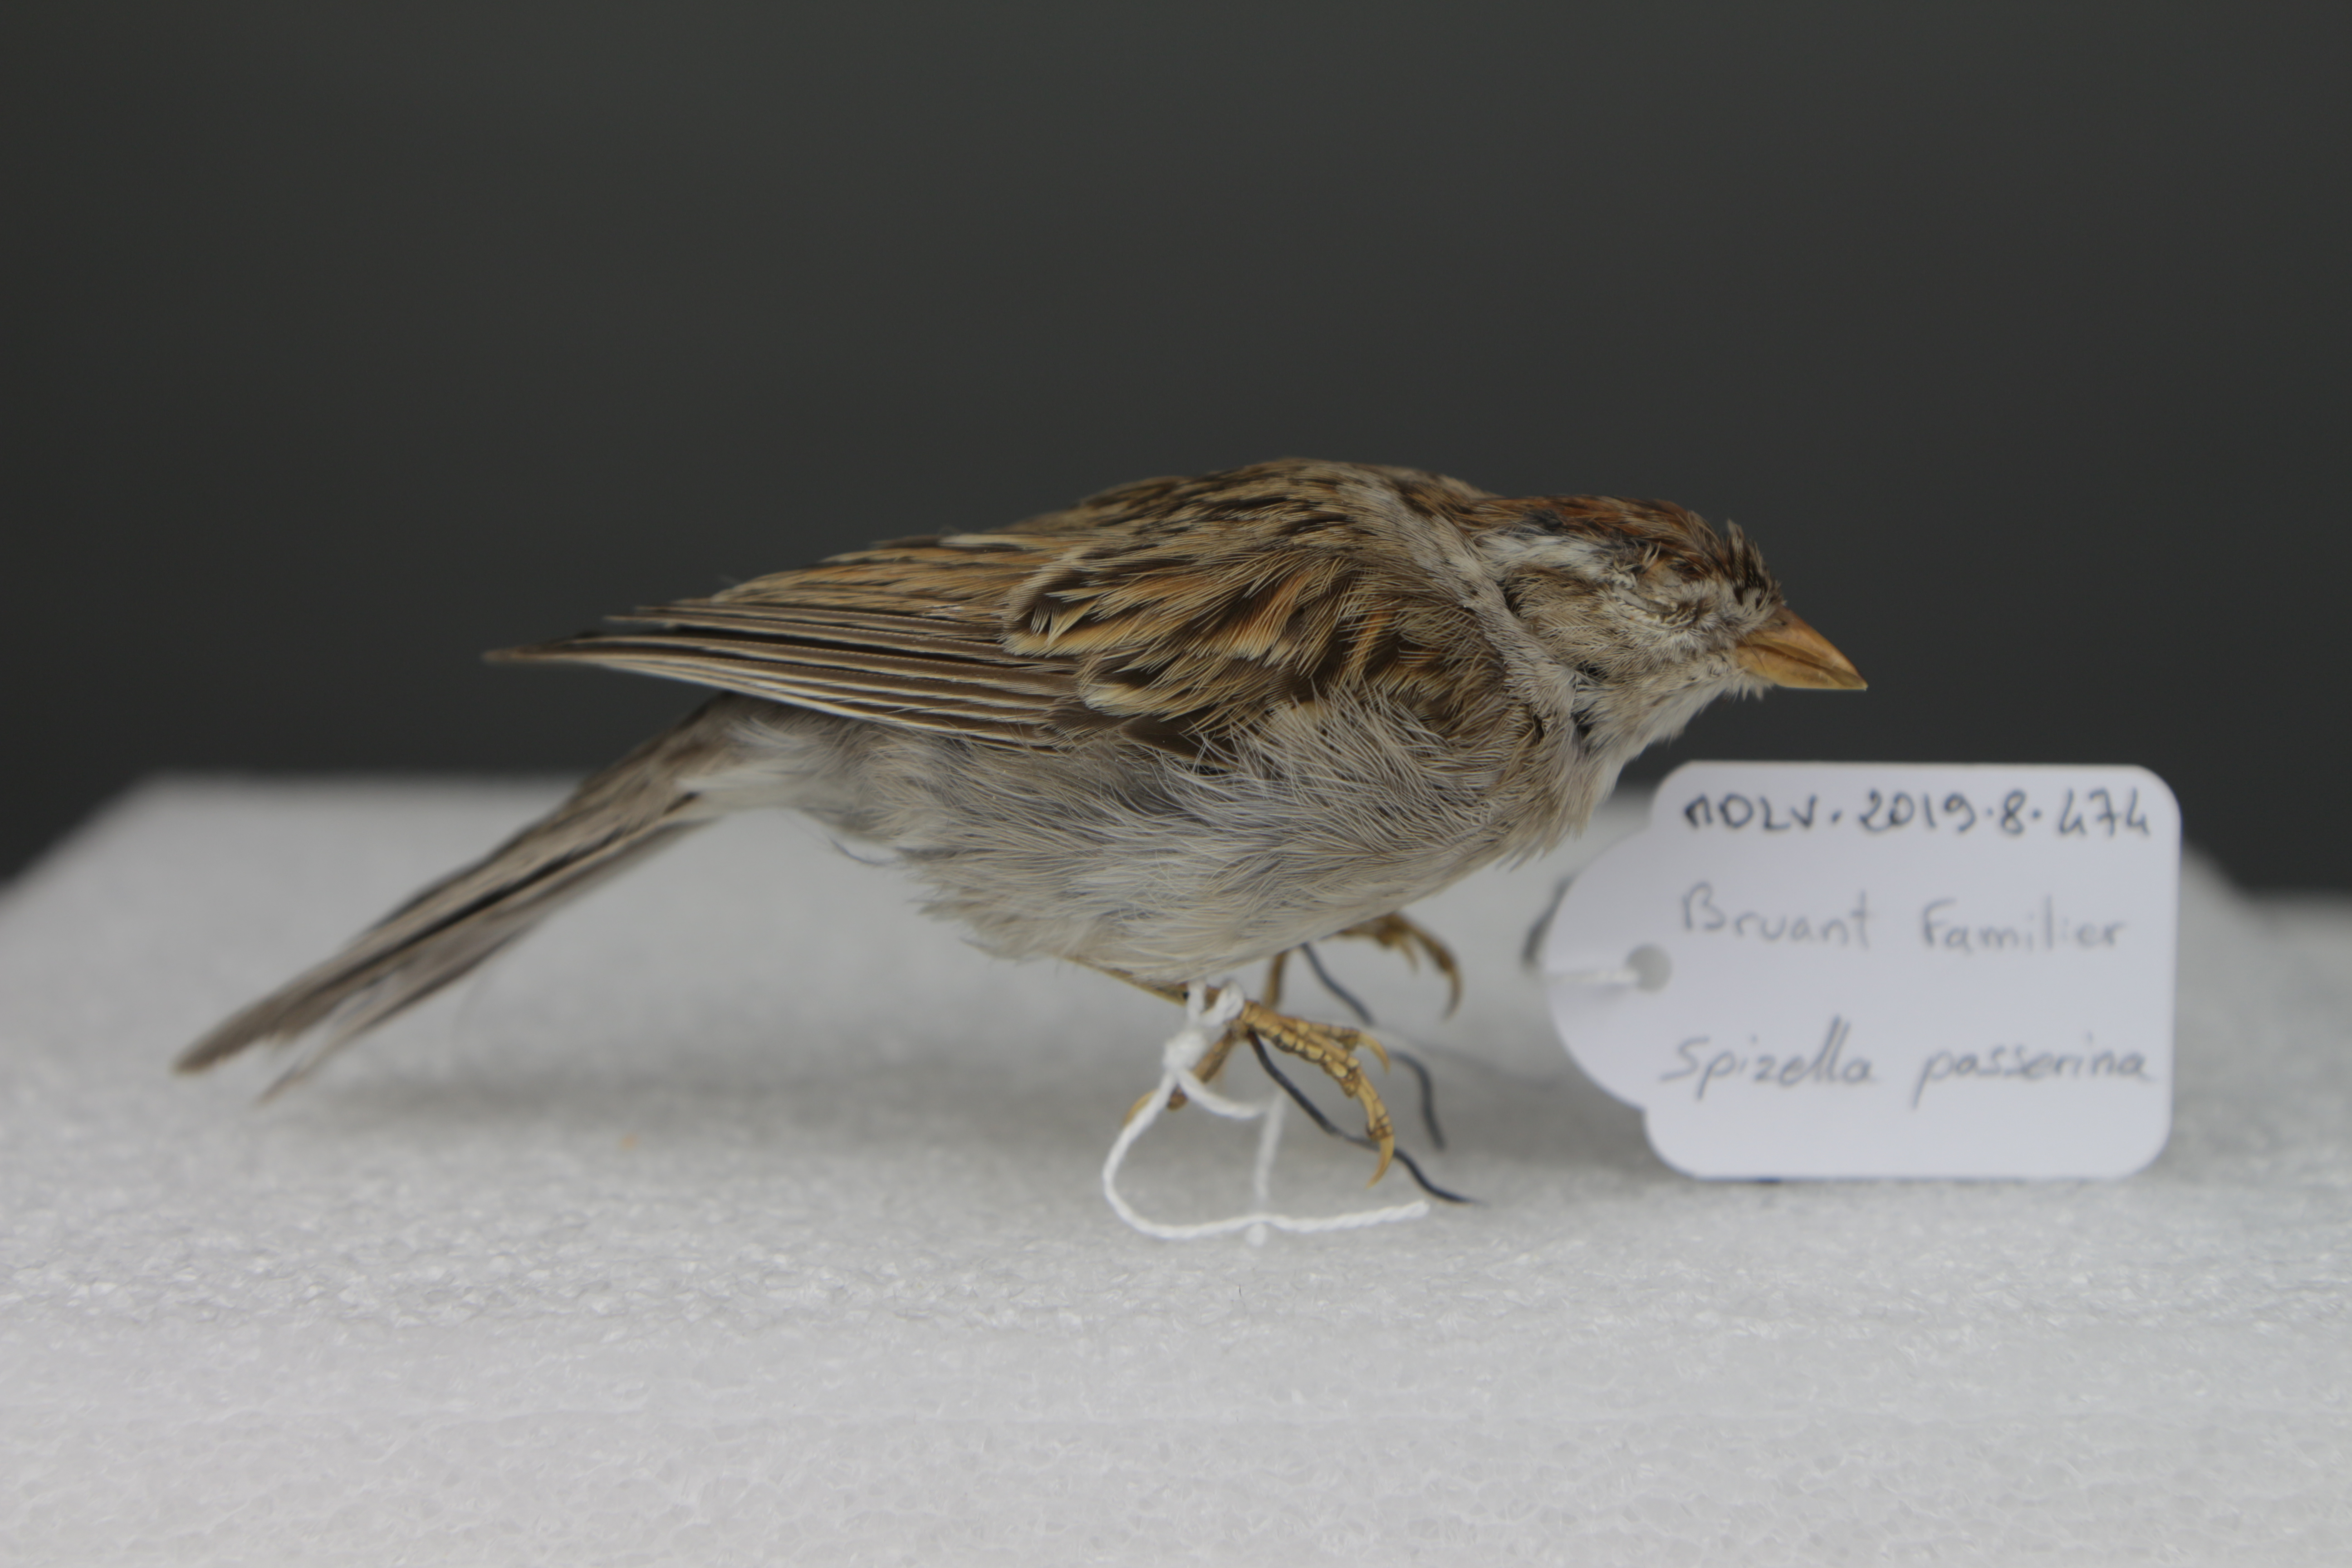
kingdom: Animalia
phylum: Chordata
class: Aves
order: Passeriformes
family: Passerellidae
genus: Spizella
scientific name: Spizella passerina
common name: Chipping sparrow
